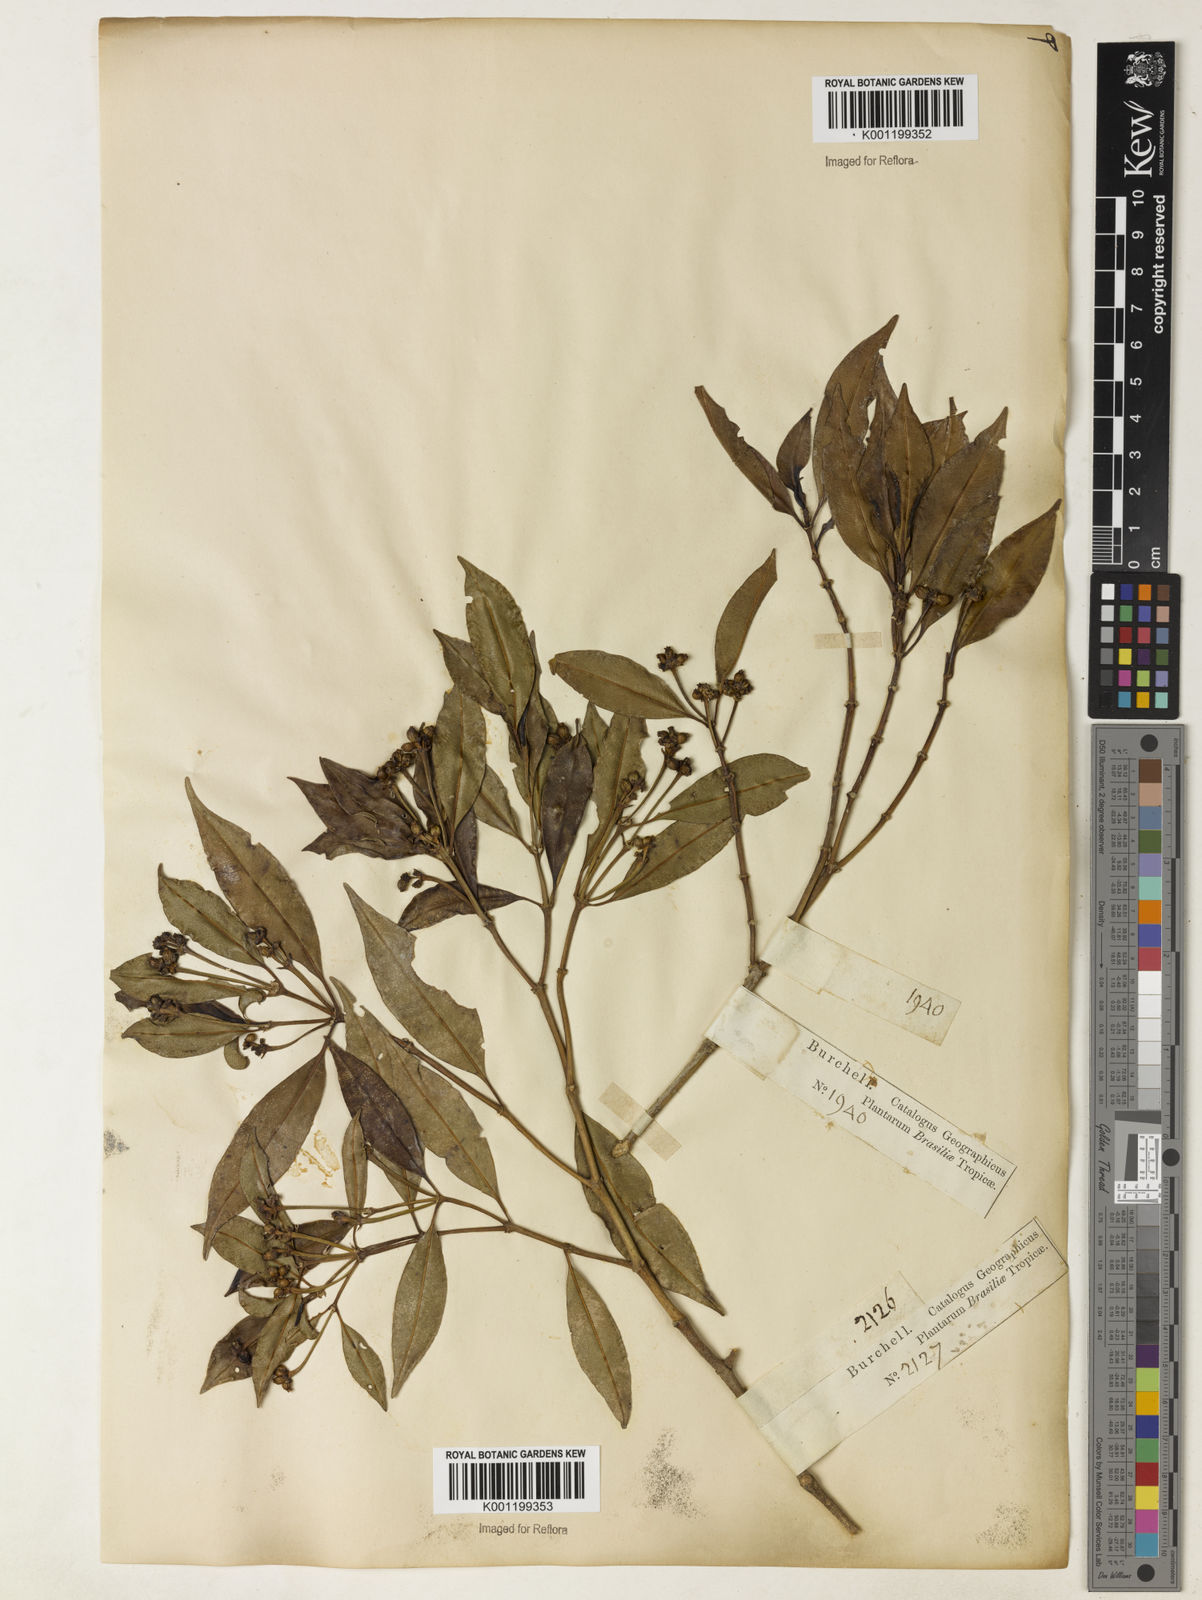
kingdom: Plantae
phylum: Tracheophyta
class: Magnoliopsida
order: Gentianales
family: Rubiaceae
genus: Rudgea
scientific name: Rudgea sessilis
